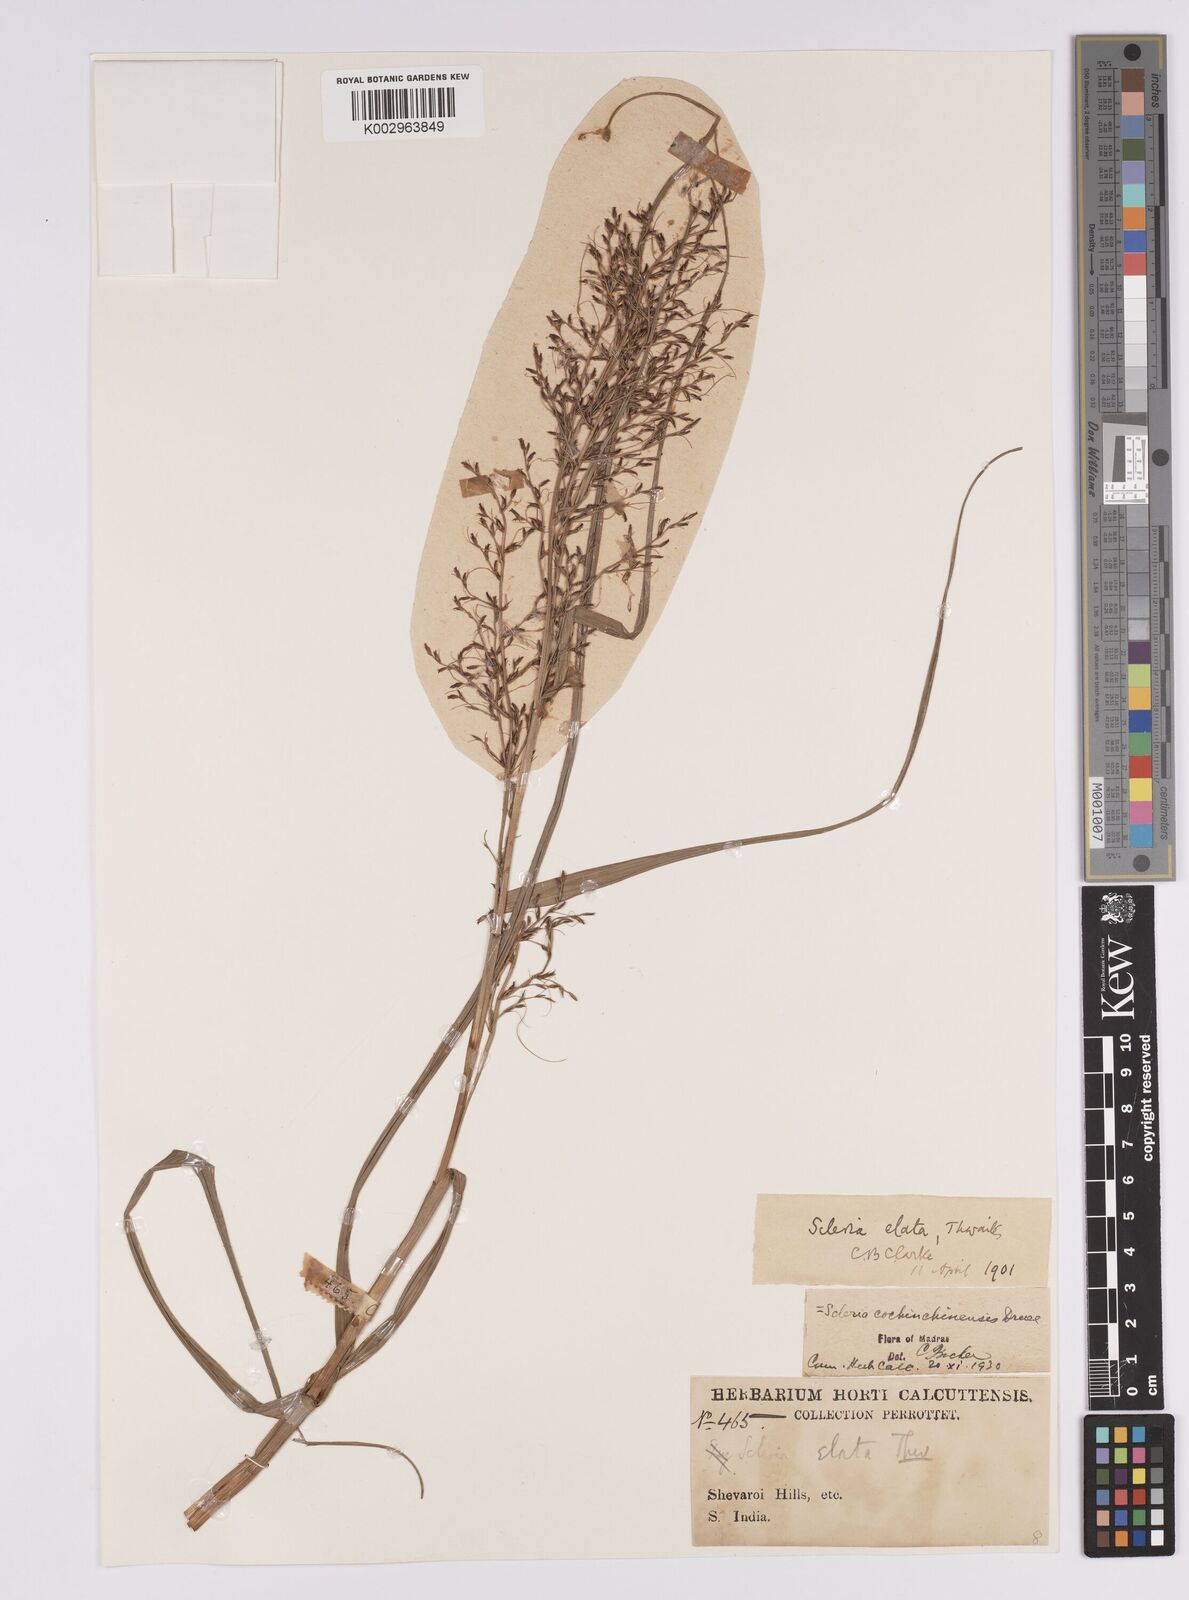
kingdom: Plantae
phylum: Tracheophyta
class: Liliopsida
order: Poales
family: Cyperaceae
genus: Scleria
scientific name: Scleria terrestris
